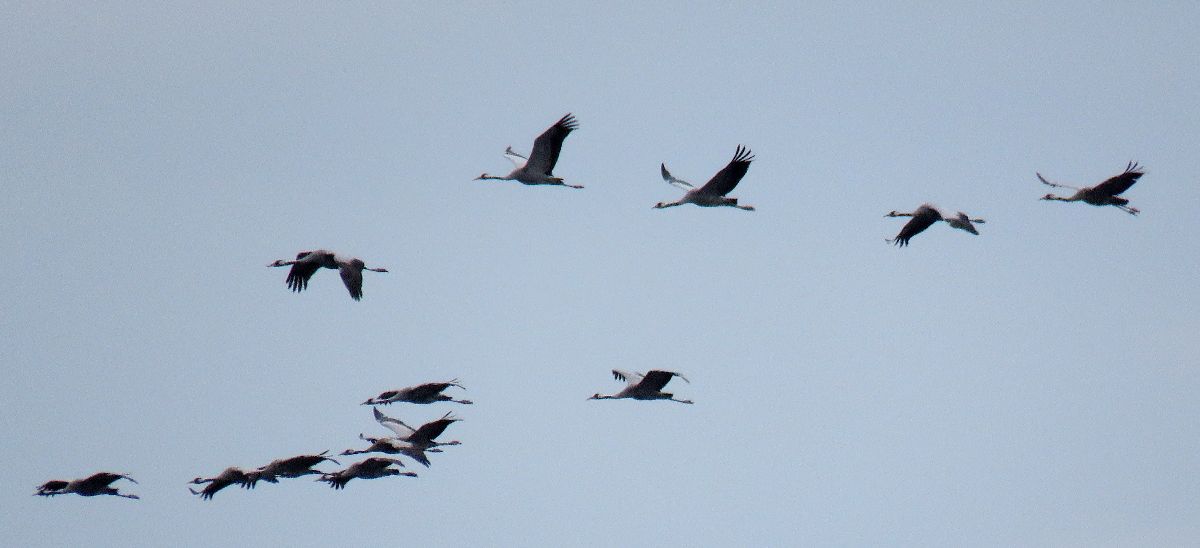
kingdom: Animalia
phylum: Chordata
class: Aves
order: Gruiformes
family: Gruidae
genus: Grus
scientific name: Grus grus
